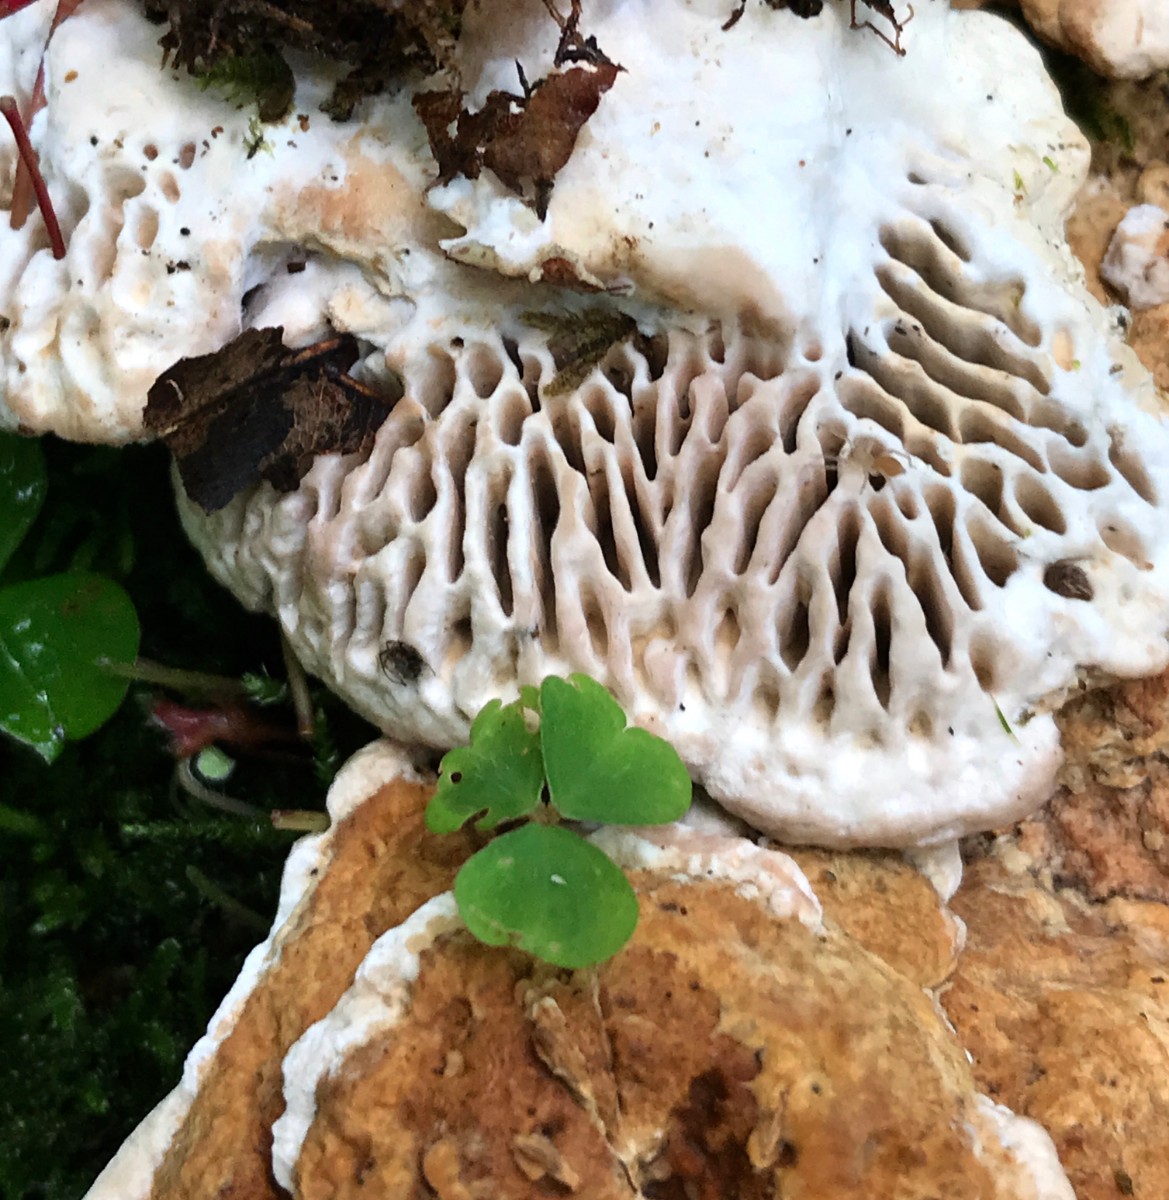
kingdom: Fungi
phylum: Basidiomycota
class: Agaricomycetes
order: Polyporales
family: Fomitopsidaceae
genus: Daedalea
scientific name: Daedalea quercina
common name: ege-labyrintsvamp
